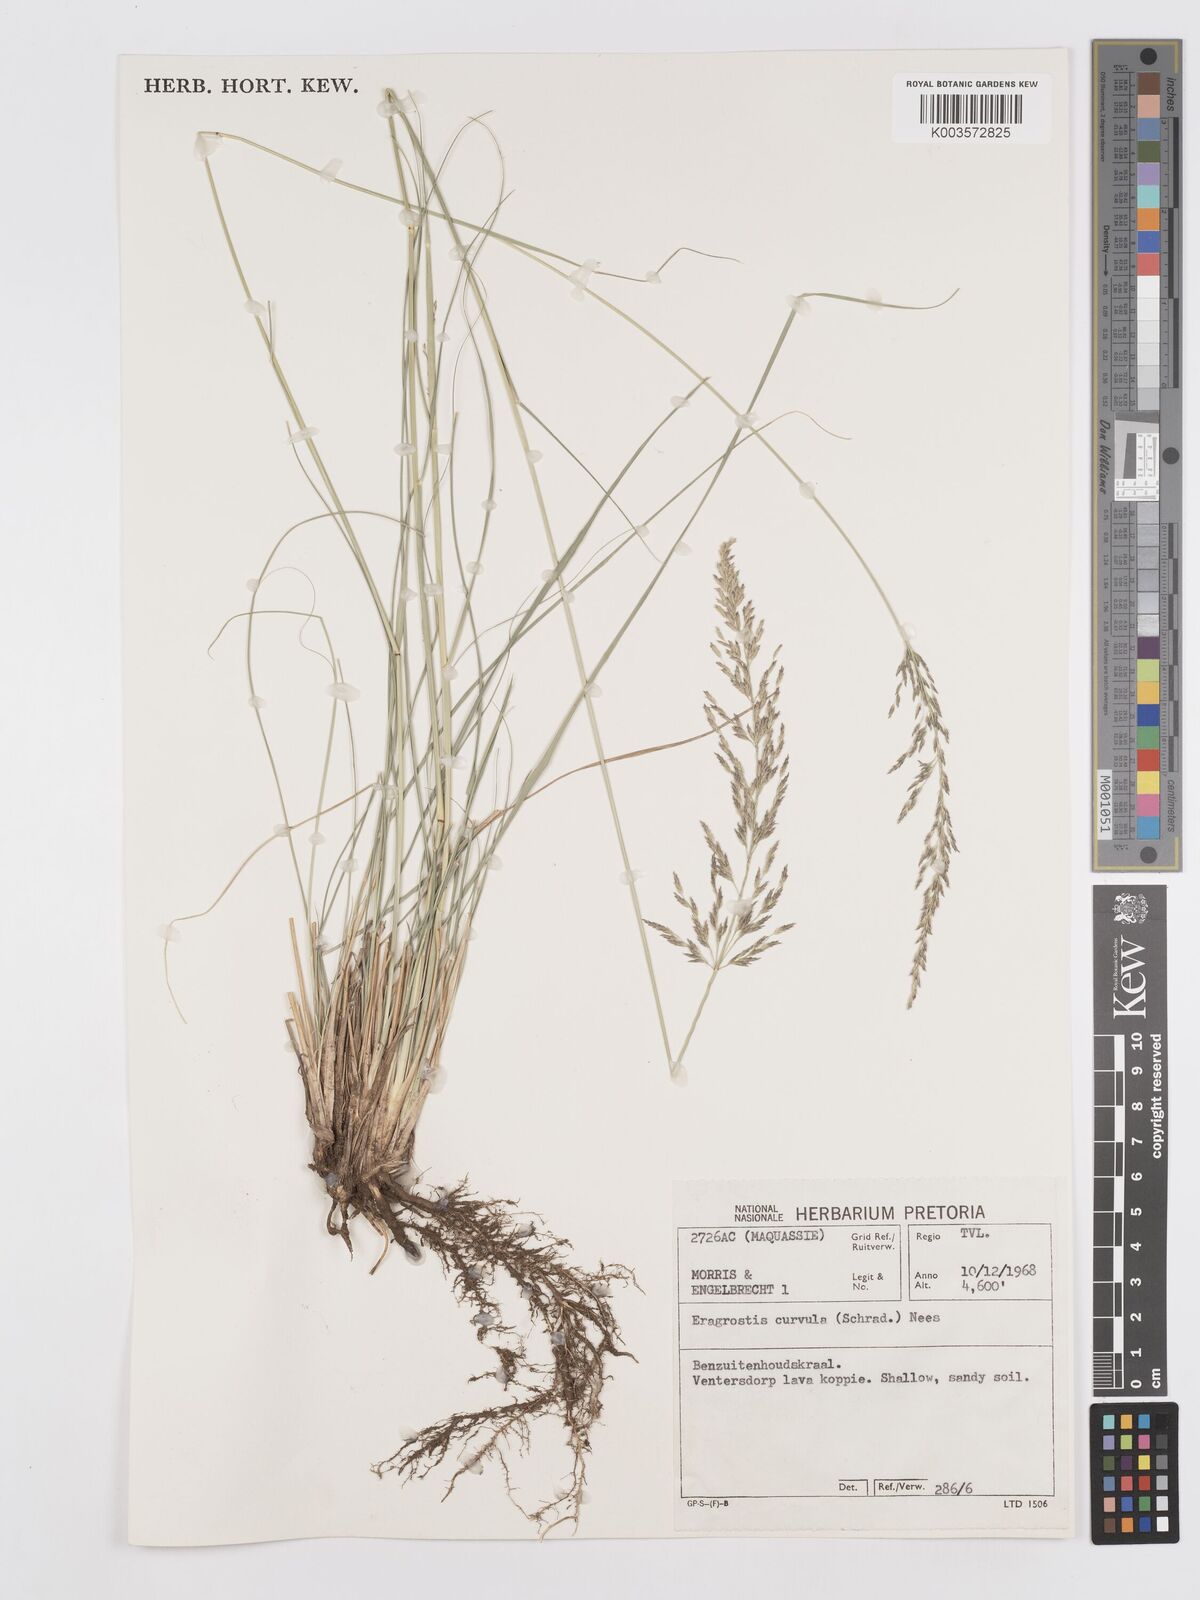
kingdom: Plantae
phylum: Tracheophyta
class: Liliopsida
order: Poales
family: Poaceae
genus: Eragrostis
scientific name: Eragrostis curvula
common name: African love-grass
